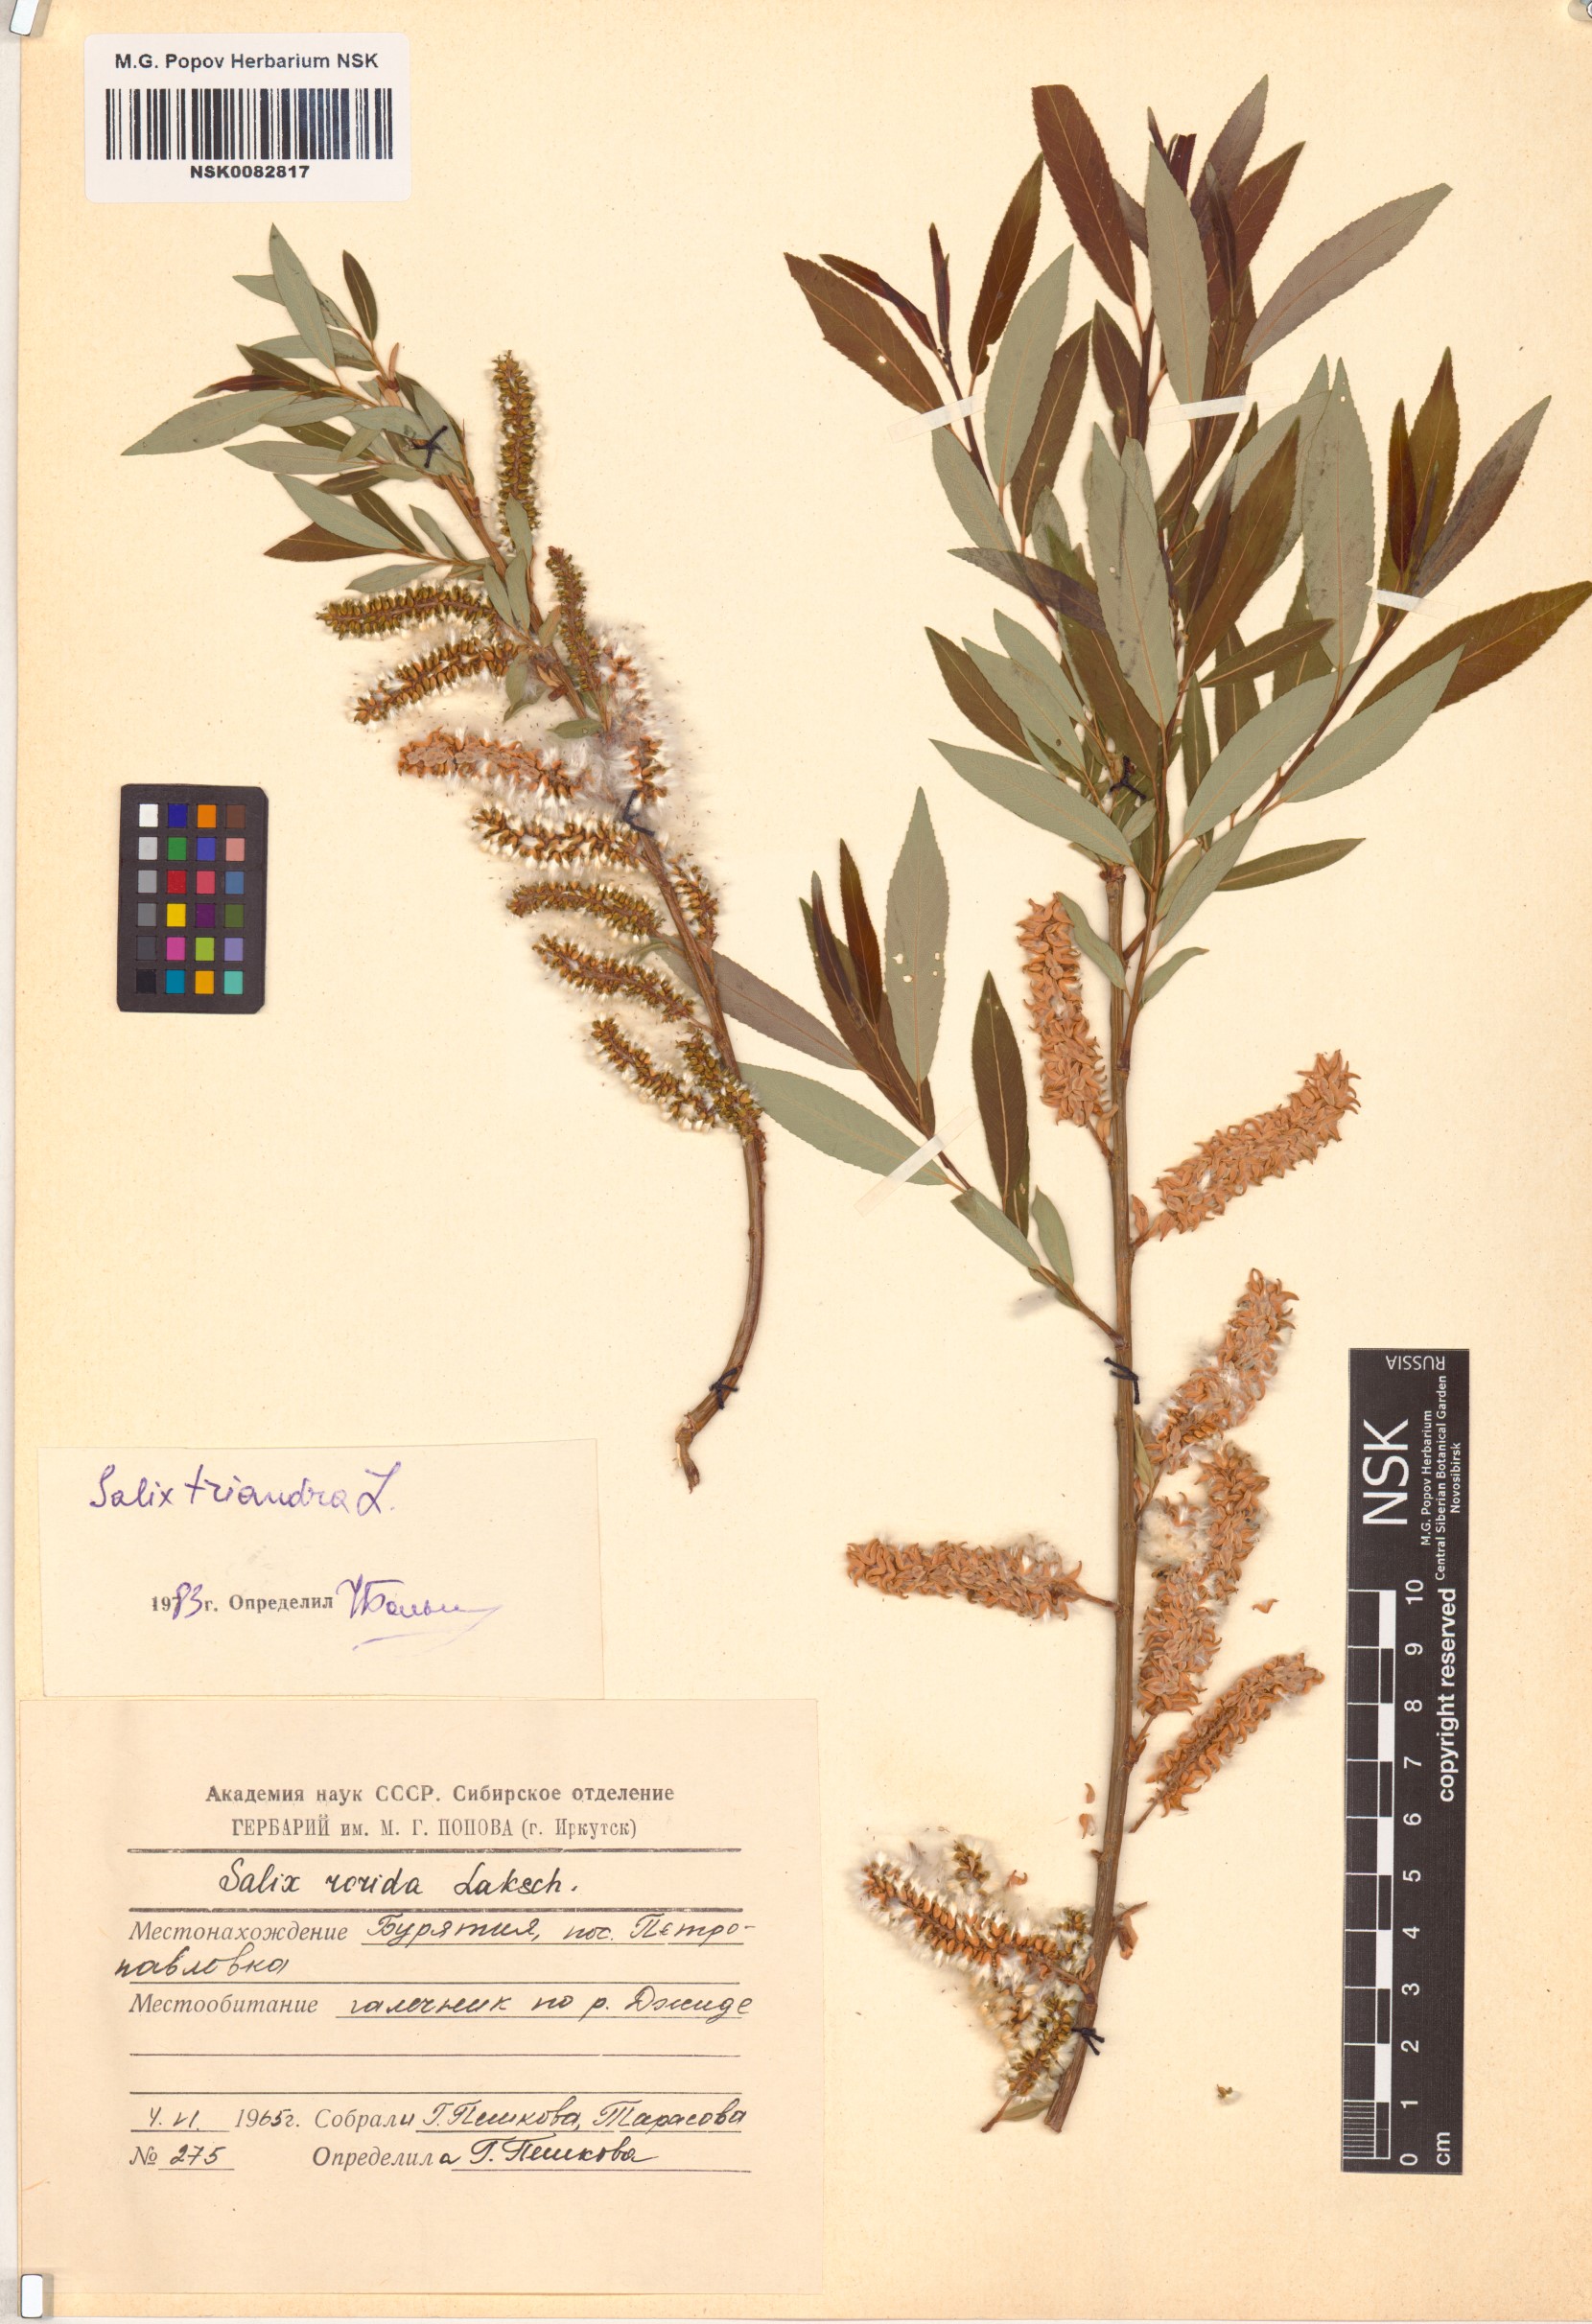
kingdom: Plantae
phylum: Tracheophyta
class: Magnoliopsida
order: Malpighiales
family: Salicaceae
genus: Salix
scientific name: Salix triandra
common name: Almond willow
